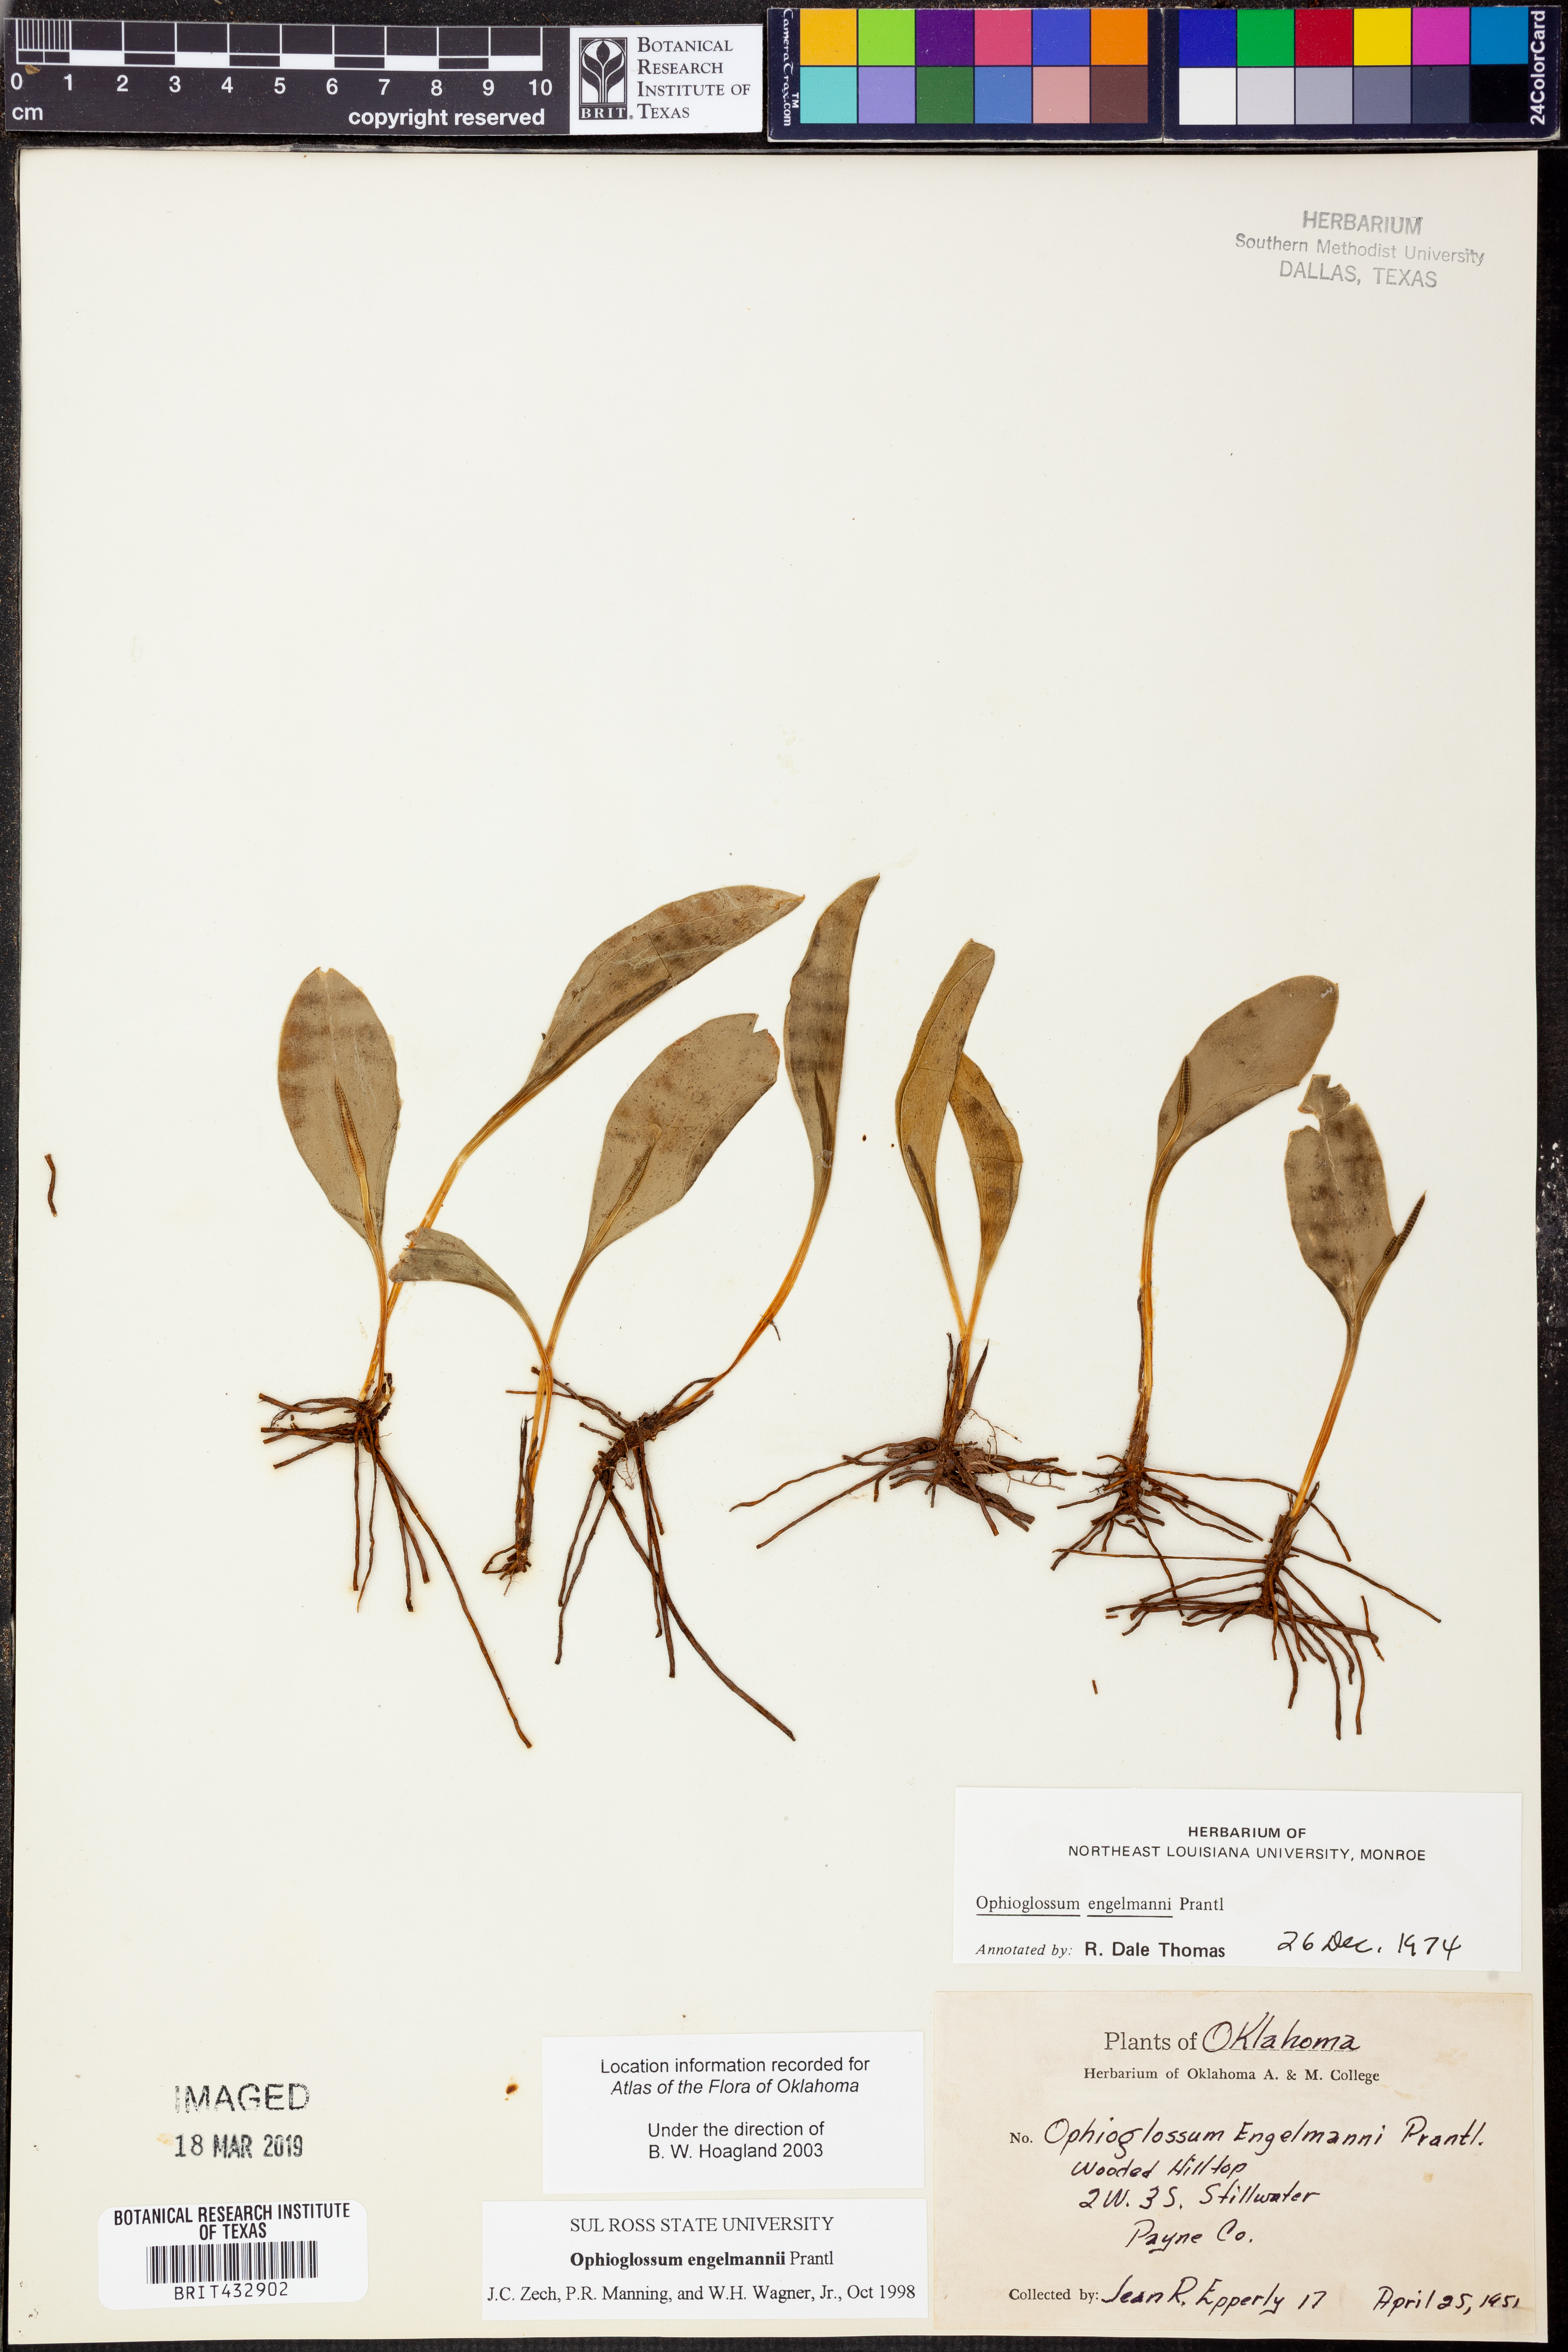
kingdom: Plantae
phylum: Tracheophyta
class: Polypodiopsida
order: Ophioglossales
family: Ophioglossaceae
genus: Ophioglossum
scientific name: Ophioglossum engelmannii
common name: Limestone adder's-tongue
